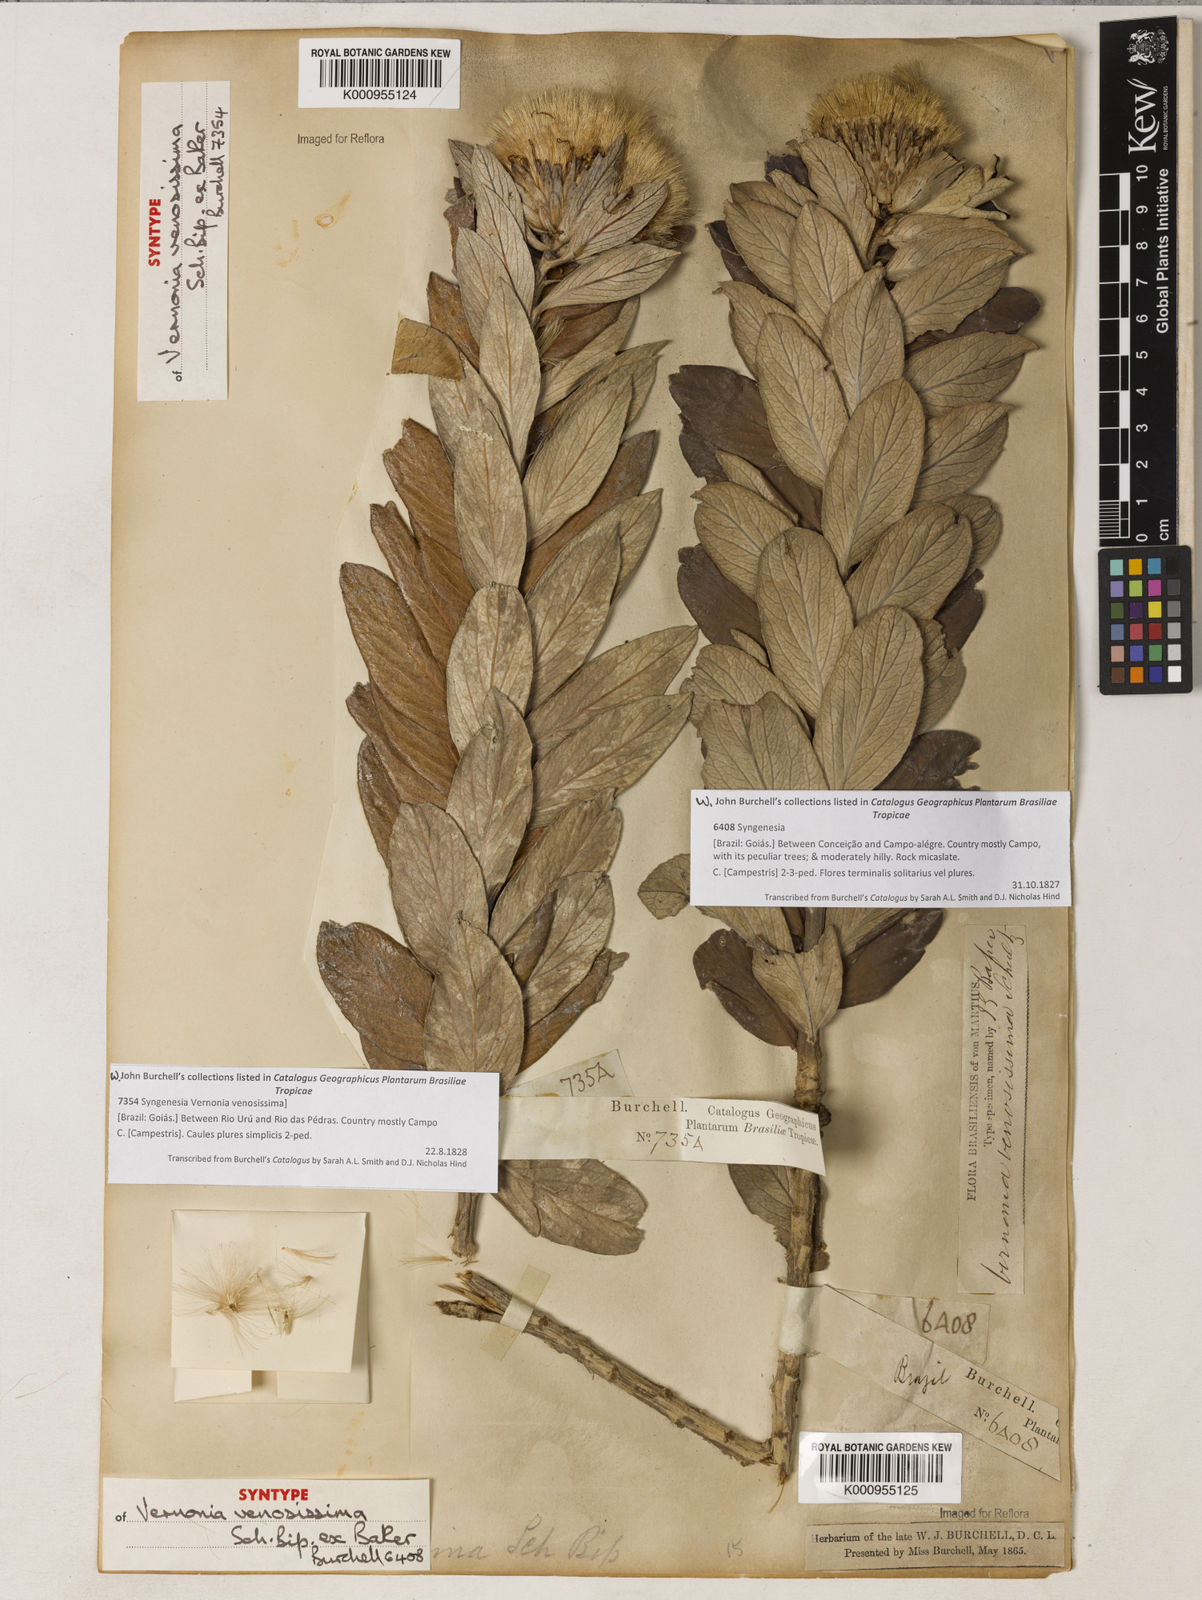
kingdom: Plantae
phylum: Tracheophyta
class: Magnoliopsida
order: Asterales
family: Asteraceae
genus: Lessingianthus
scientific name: Lessingianthus venosissimus
